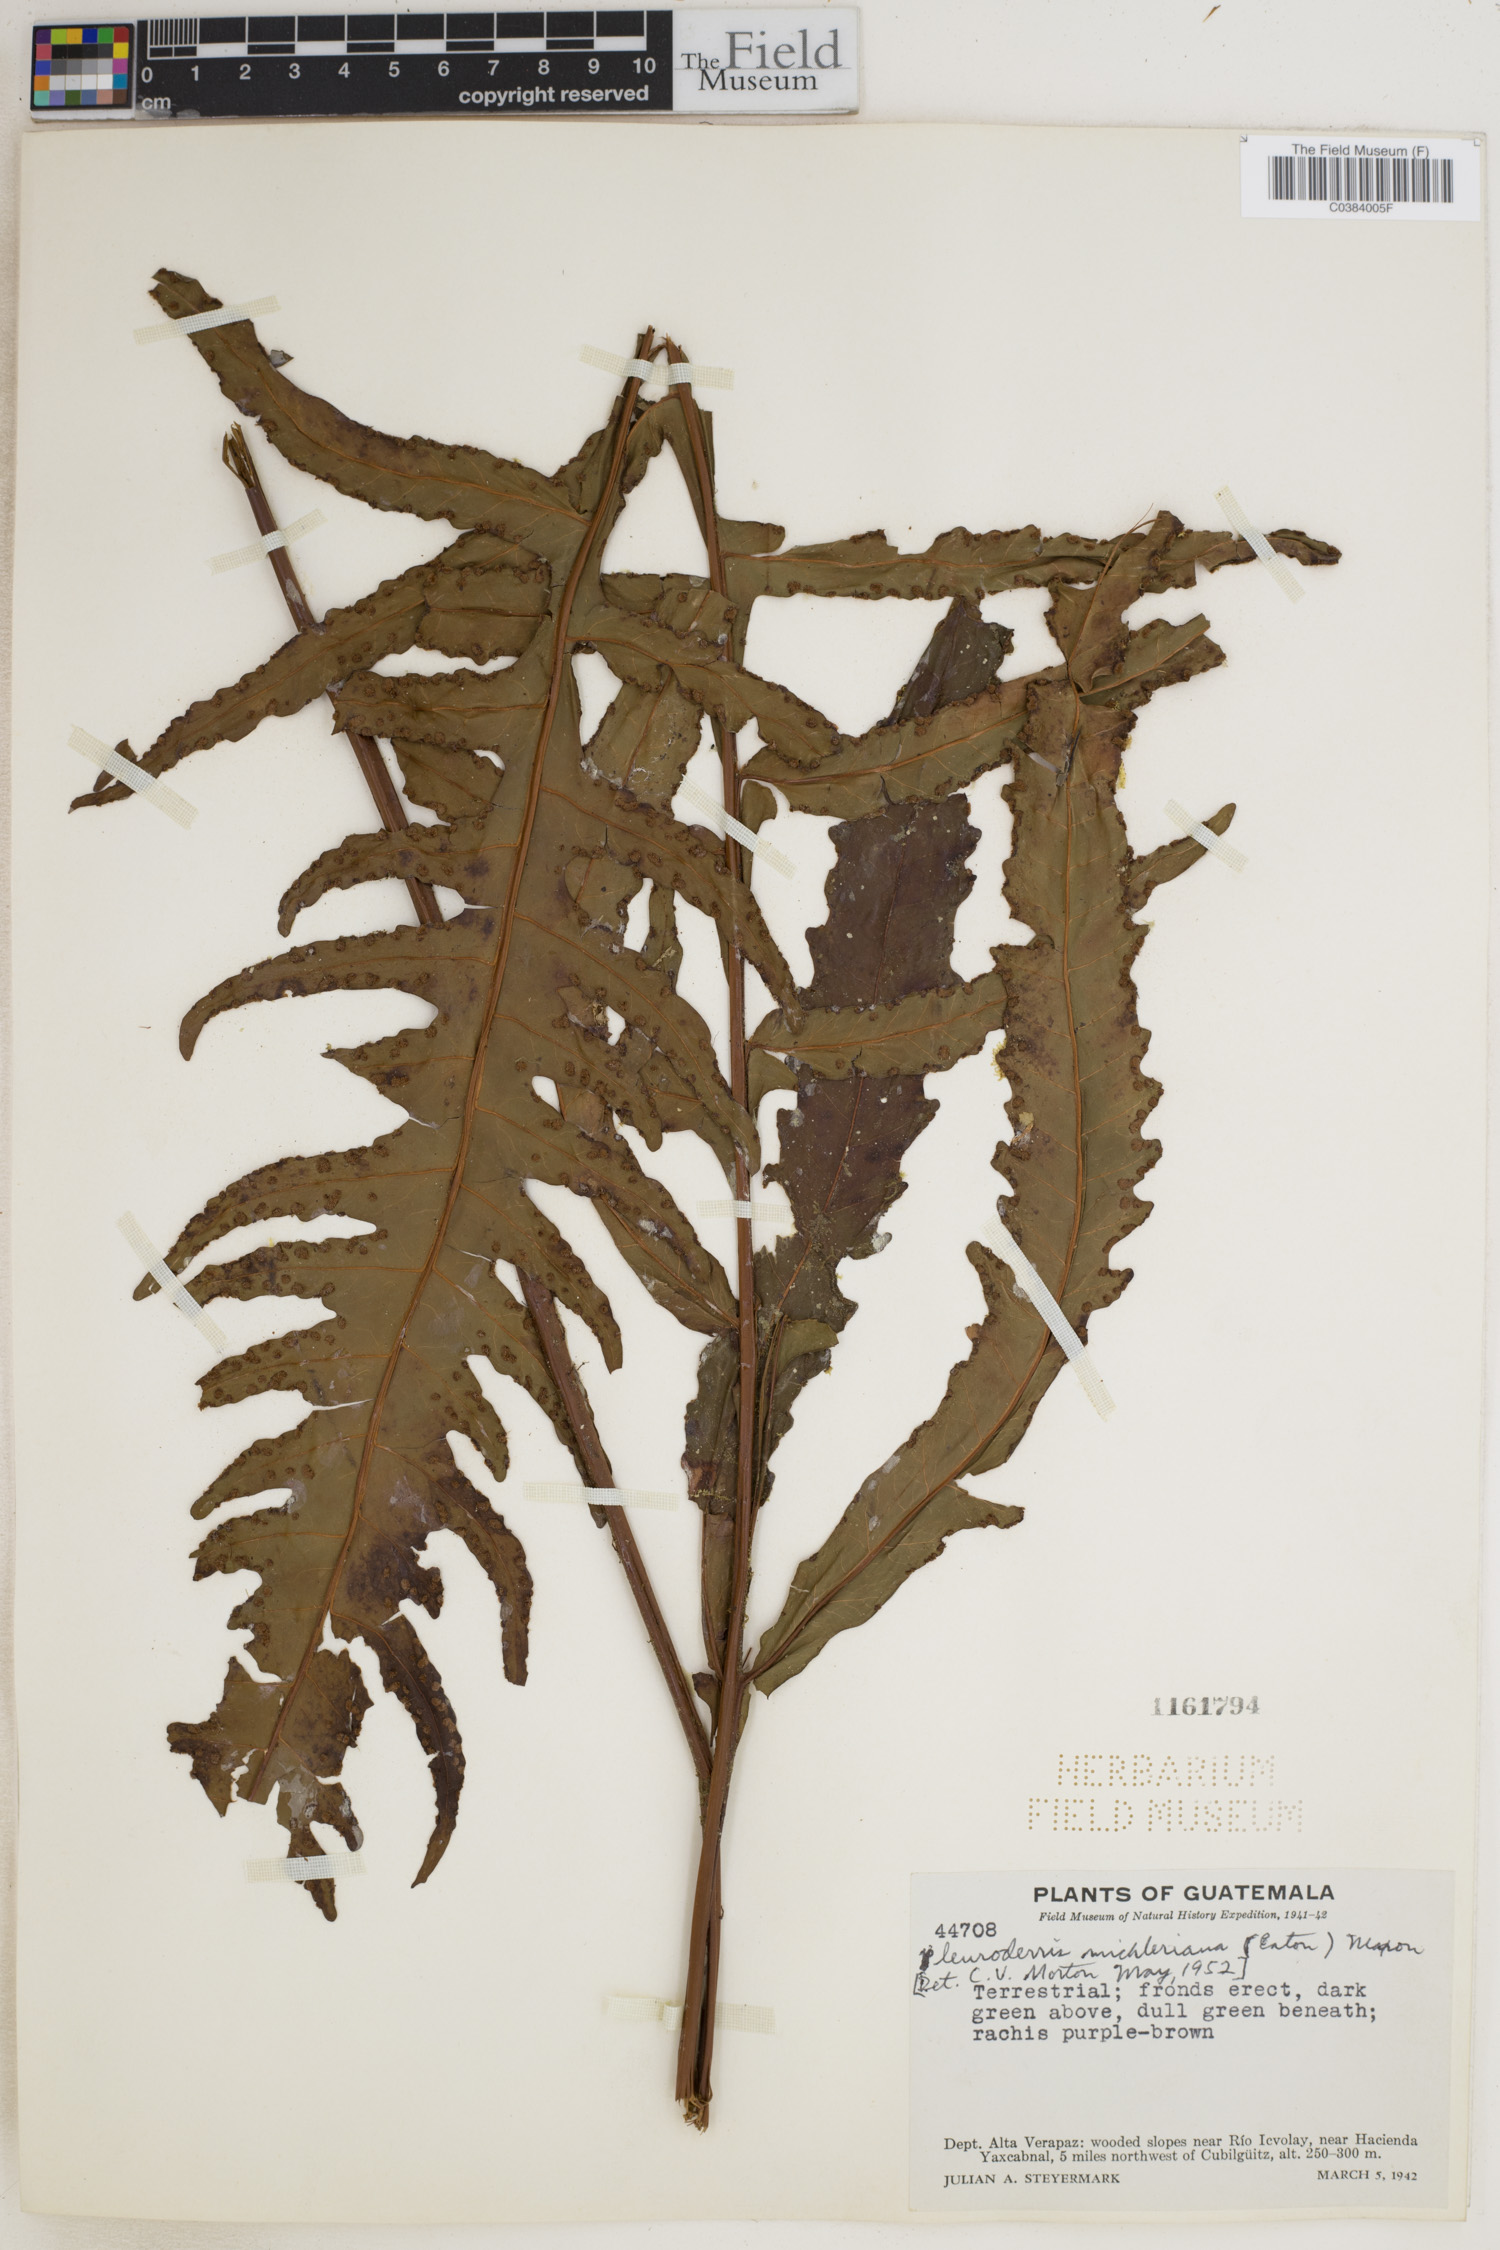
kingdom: Plantae
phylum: Tracheophyta
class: Polypodiopsida
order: Polypodiales
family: Tectariaceae
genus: Tectaria
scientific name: Tectaria michleriana
